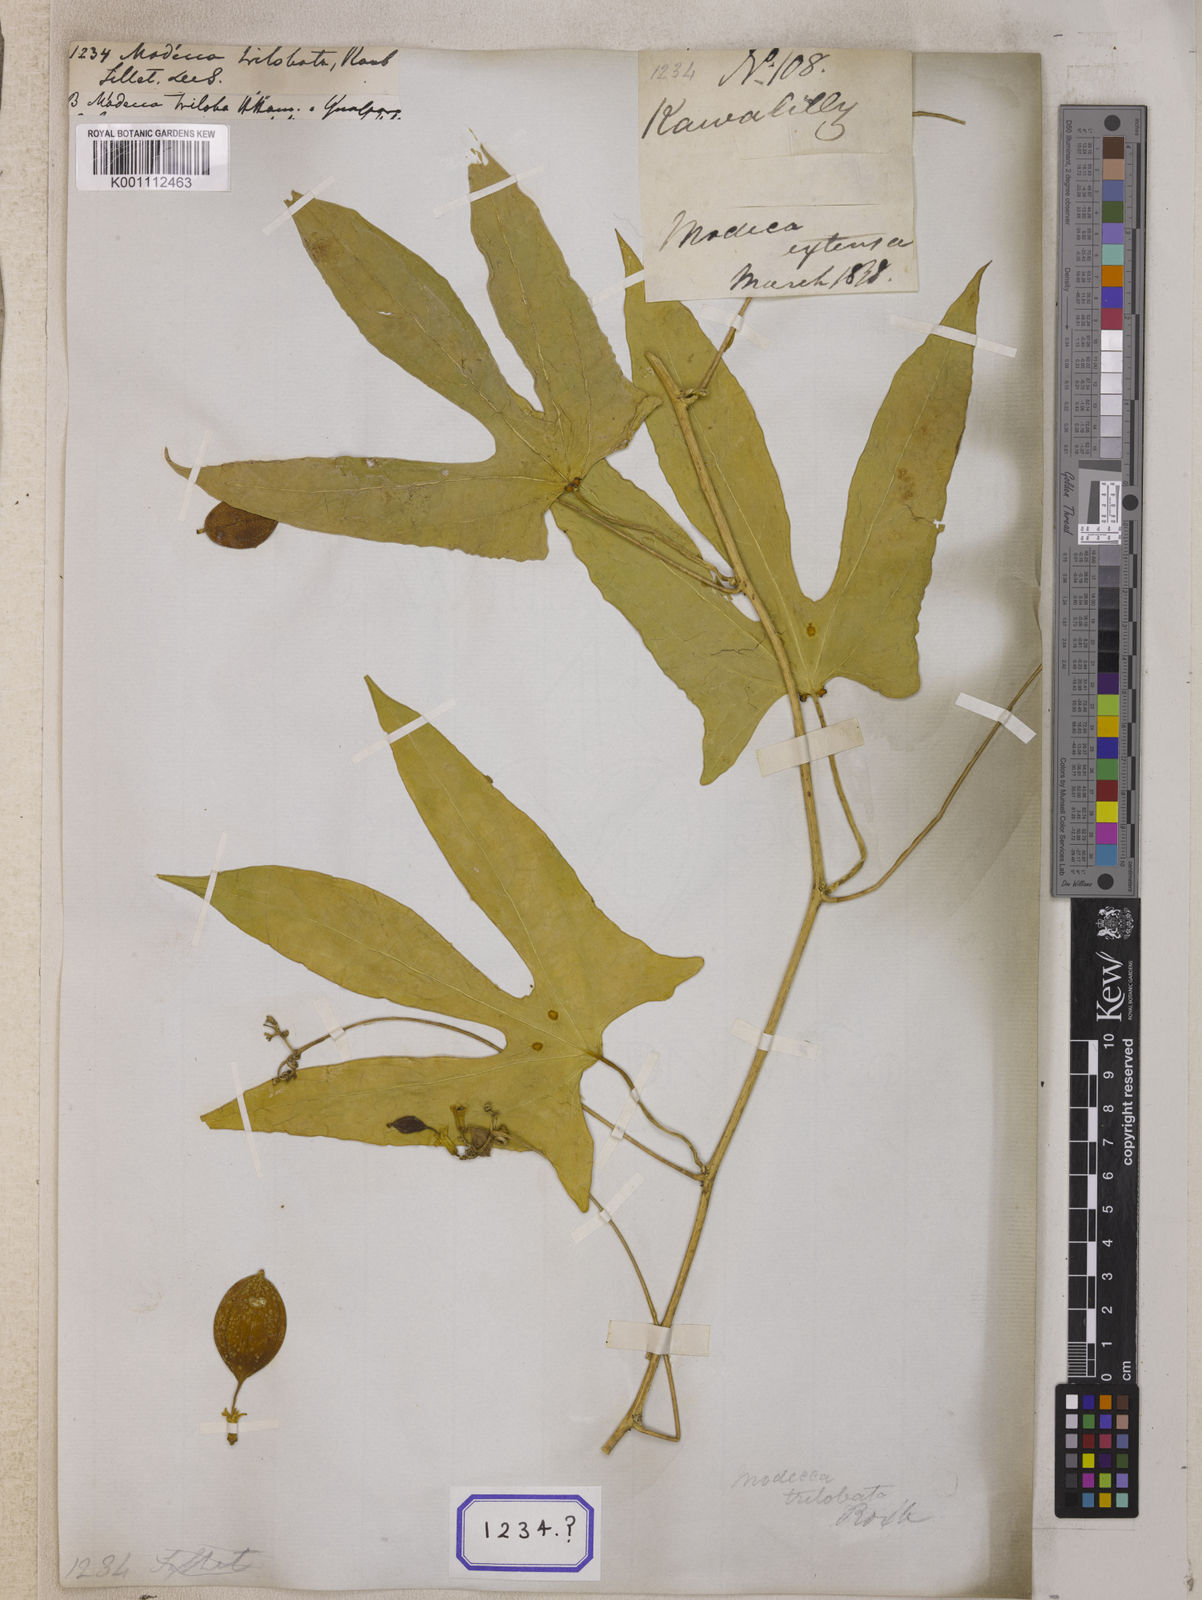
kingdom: Plantae
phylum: Tracheophyta
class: Magnoliopsida
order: Malpighiales
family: Passifloraceae
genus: Adenia
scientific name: Adenia trilobata
